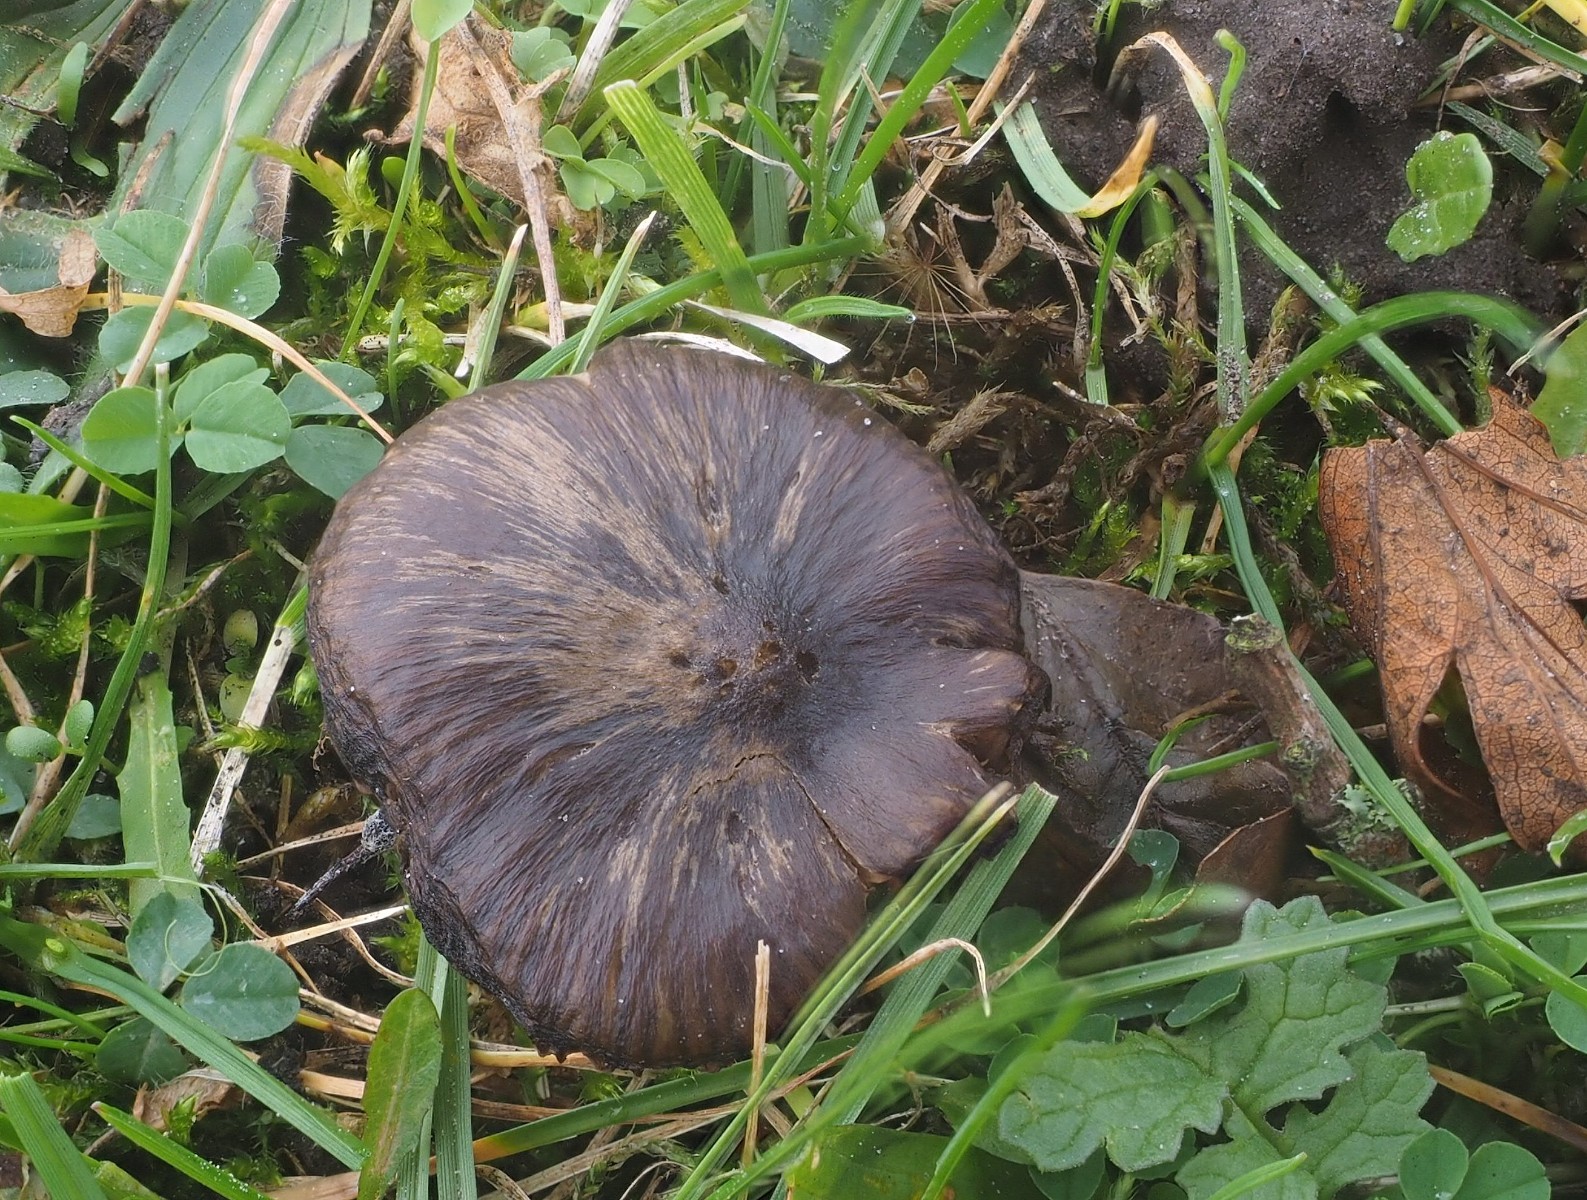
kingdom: Fungi
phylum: Basidiomycota
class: Agaricomycetes
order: Agaricales
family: Entolomataceae
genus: Entoloma
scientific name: Entoloma
